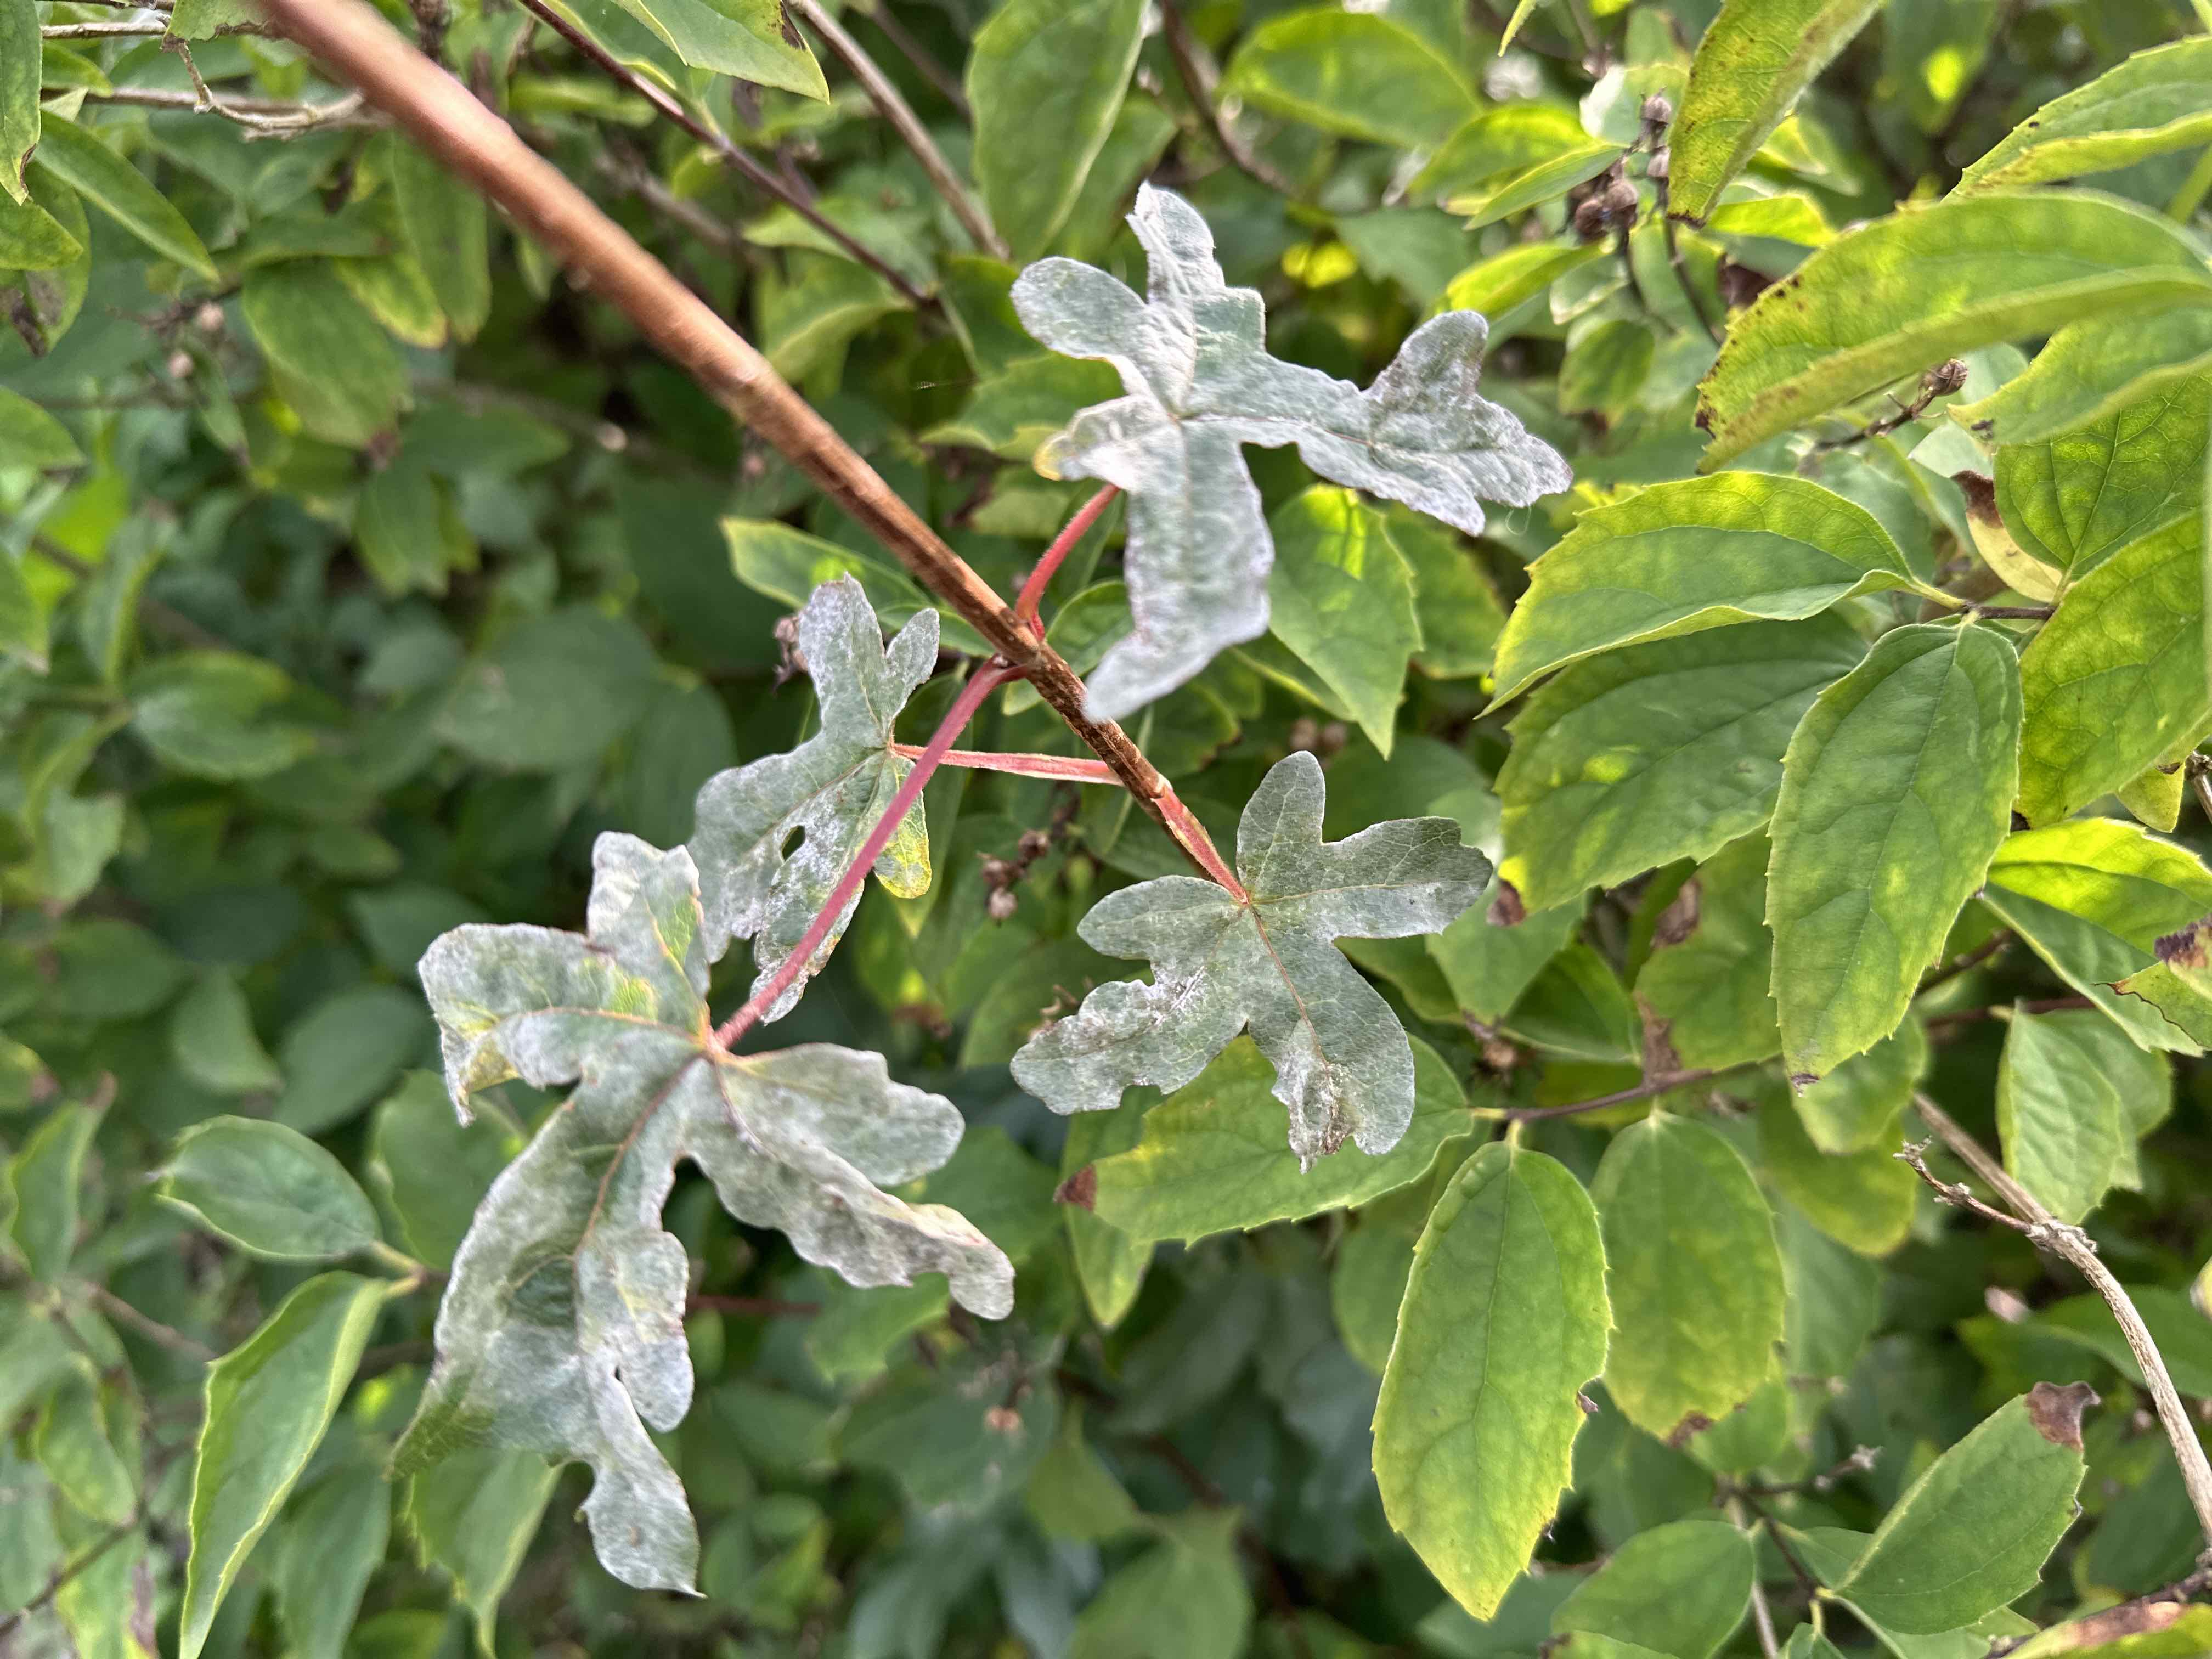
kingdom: Fungi
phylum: Ascomycota
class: Leotiomycetes
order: Helotiales
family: Erysiphaceae
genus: Sawadaea
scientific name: Sawadaea bicornis
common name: Maple mildew
